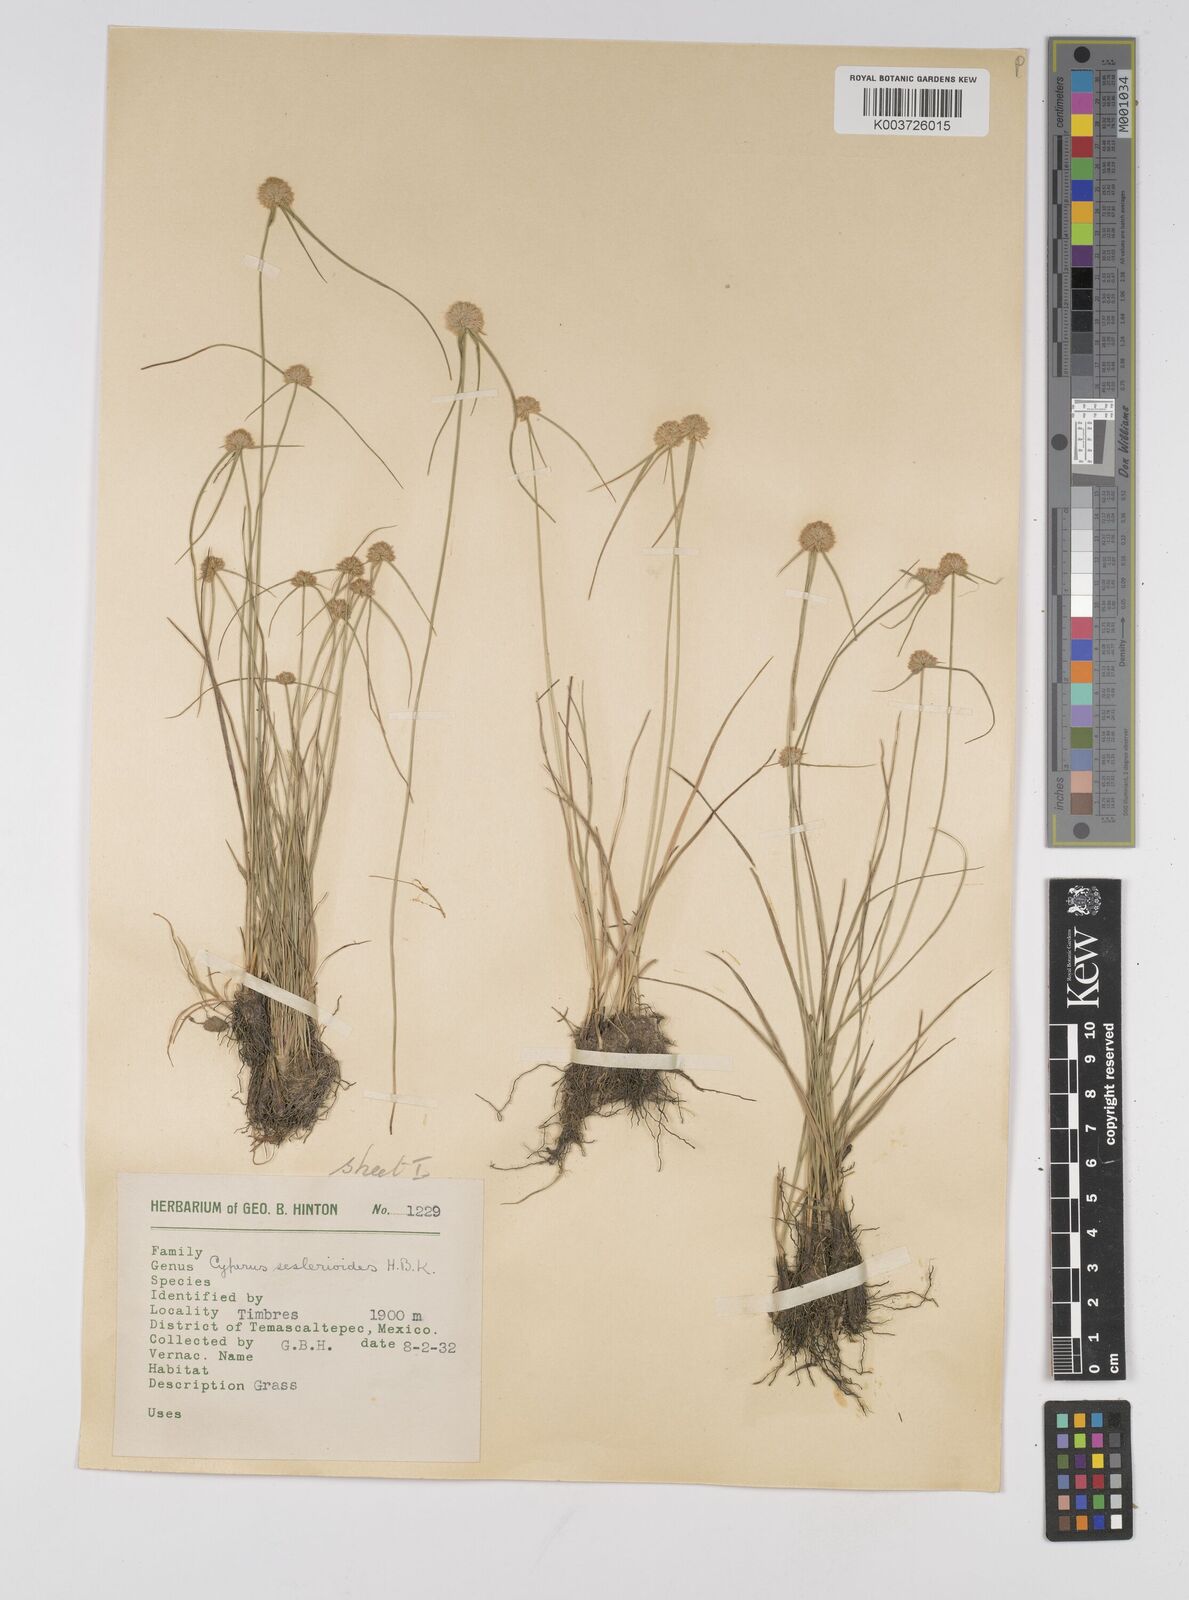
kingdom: Plantae
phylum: Tracheophyta
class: Liliopsida
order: Poales
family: Cyperaceae
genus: Cyperus
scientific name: Cyperus seslerioides
